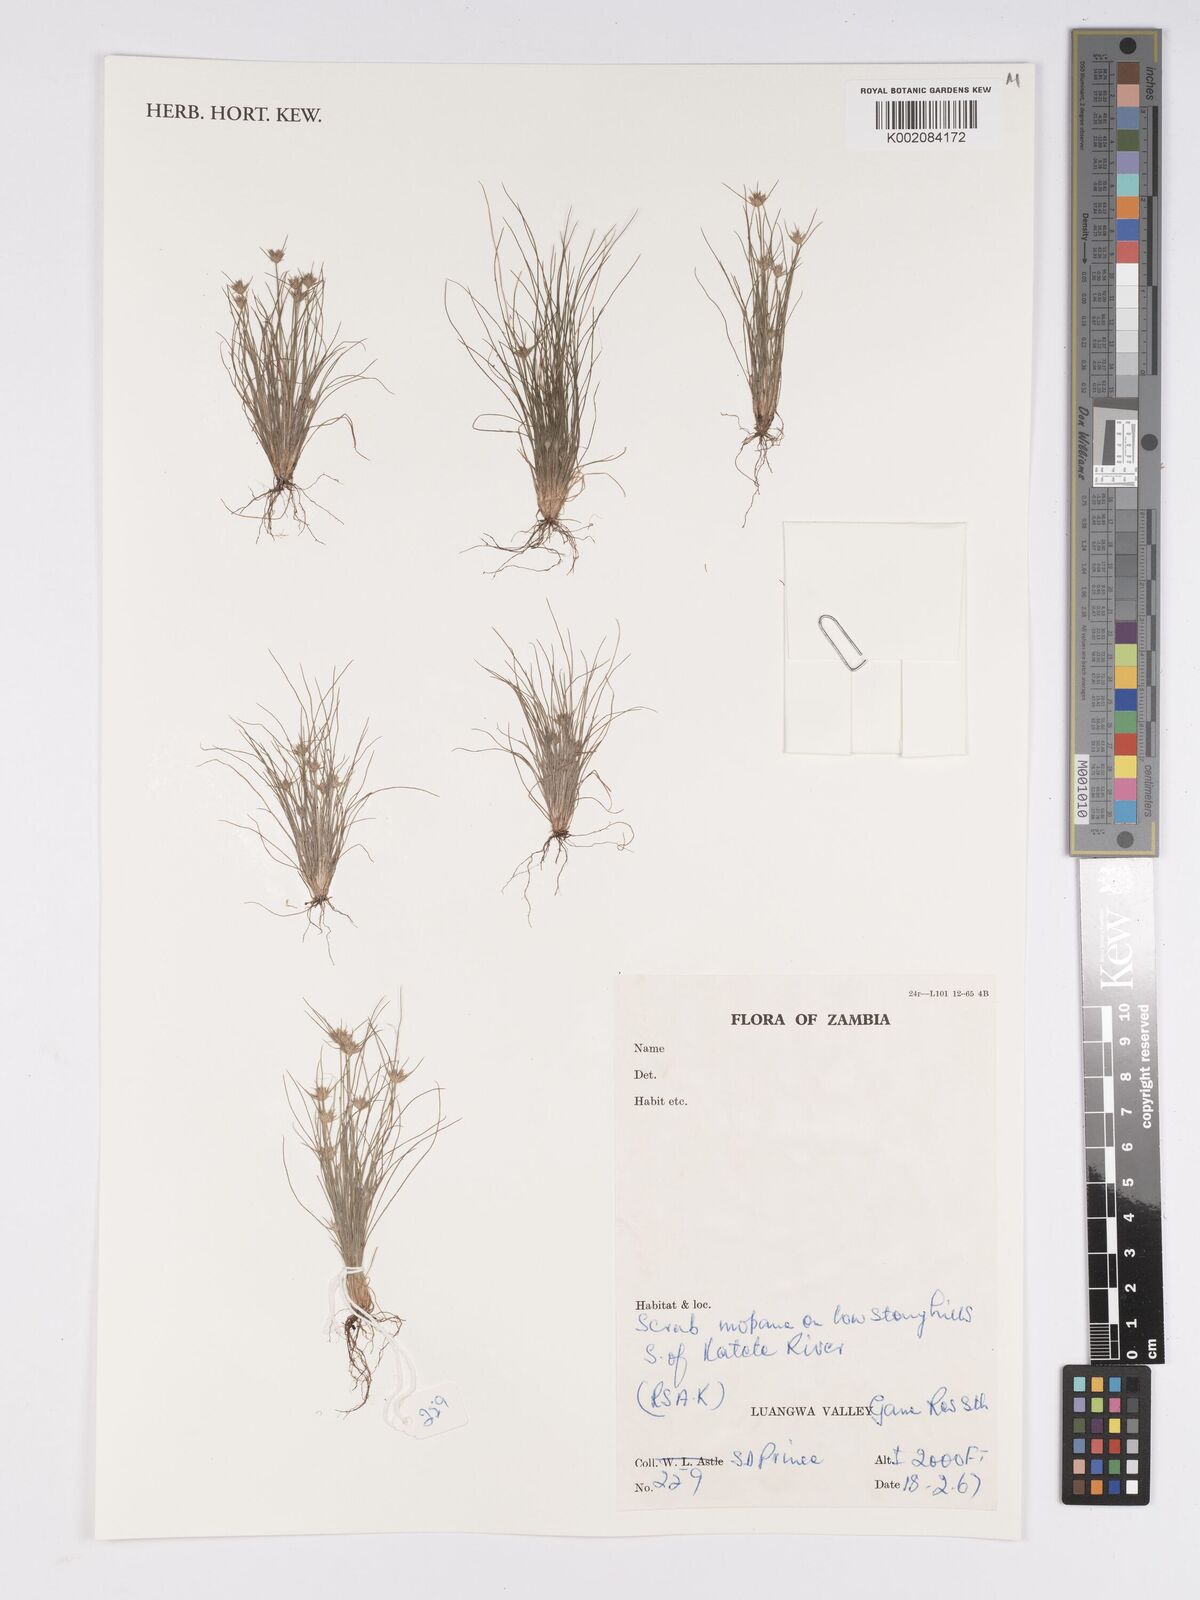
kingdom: Plantae
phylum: Tracheophyta
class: Liliopsida
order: Poales
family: Cyperaceae
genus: Bulbostylis
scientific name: Bulbostylis
